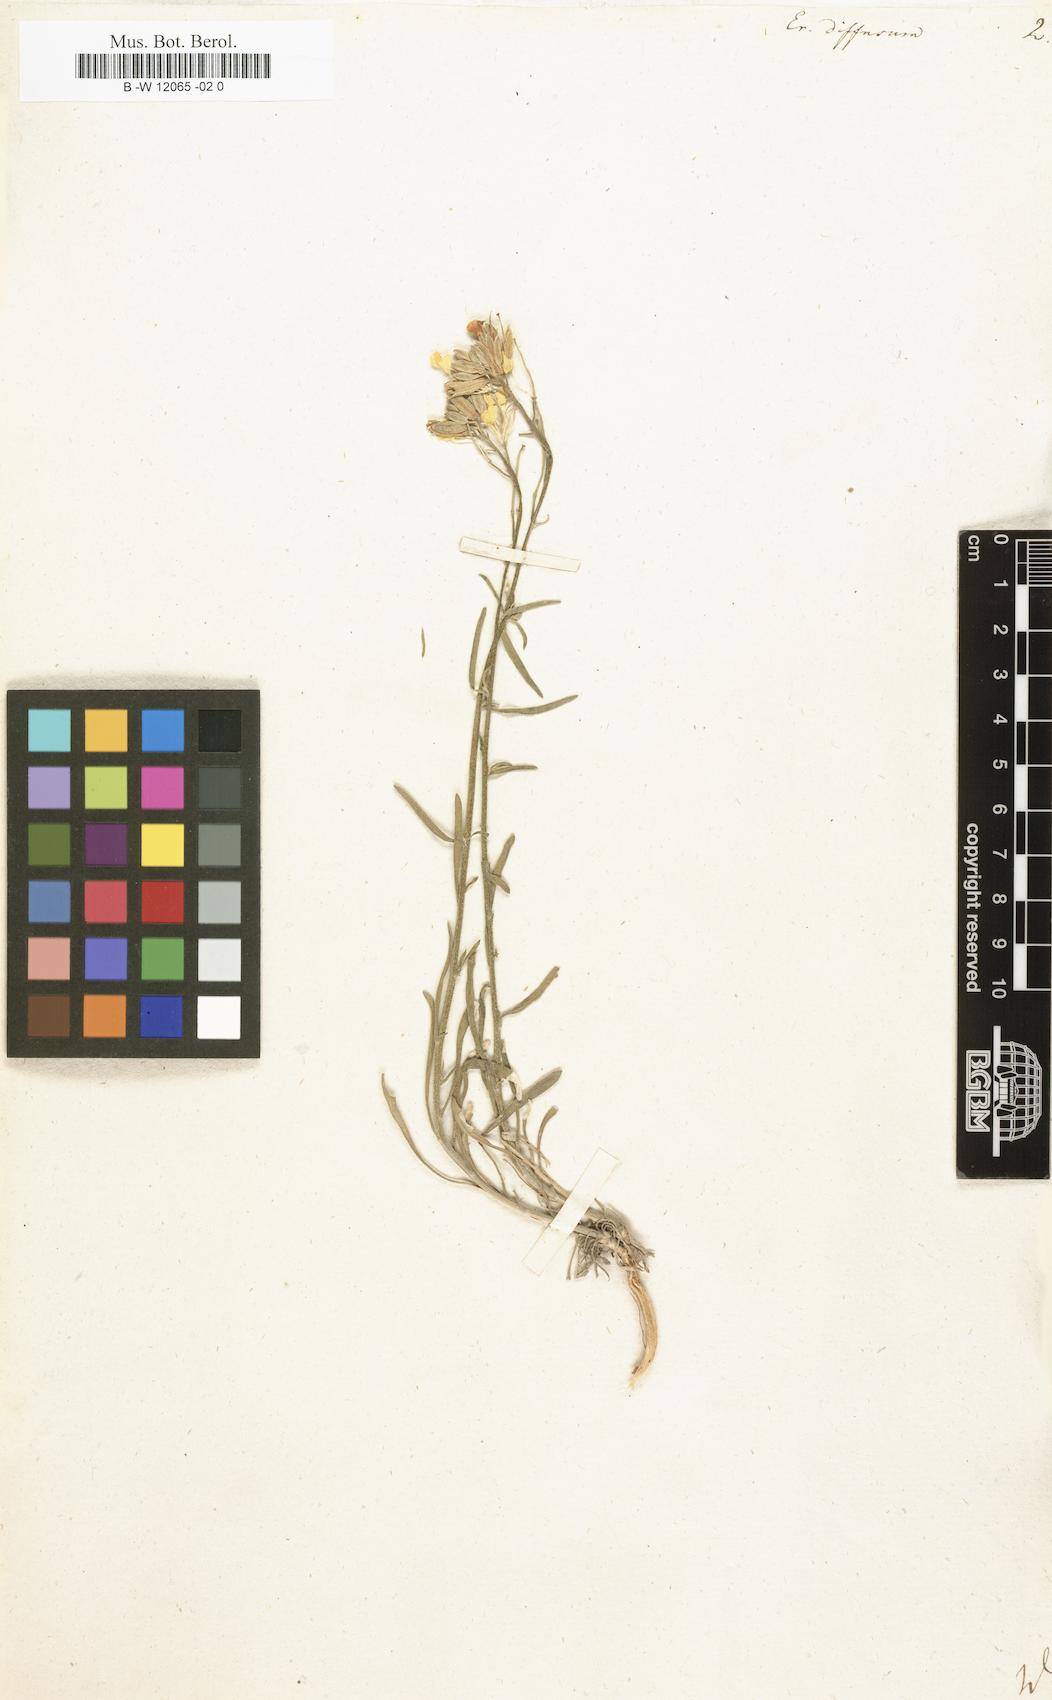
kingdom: Plantae
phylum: Tracheophyta
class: Magnoliopsida
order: Brassicales
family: Brassicaceae
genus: Erysimum
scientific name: Erysimum diffusum
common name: Diffuse wallflower
